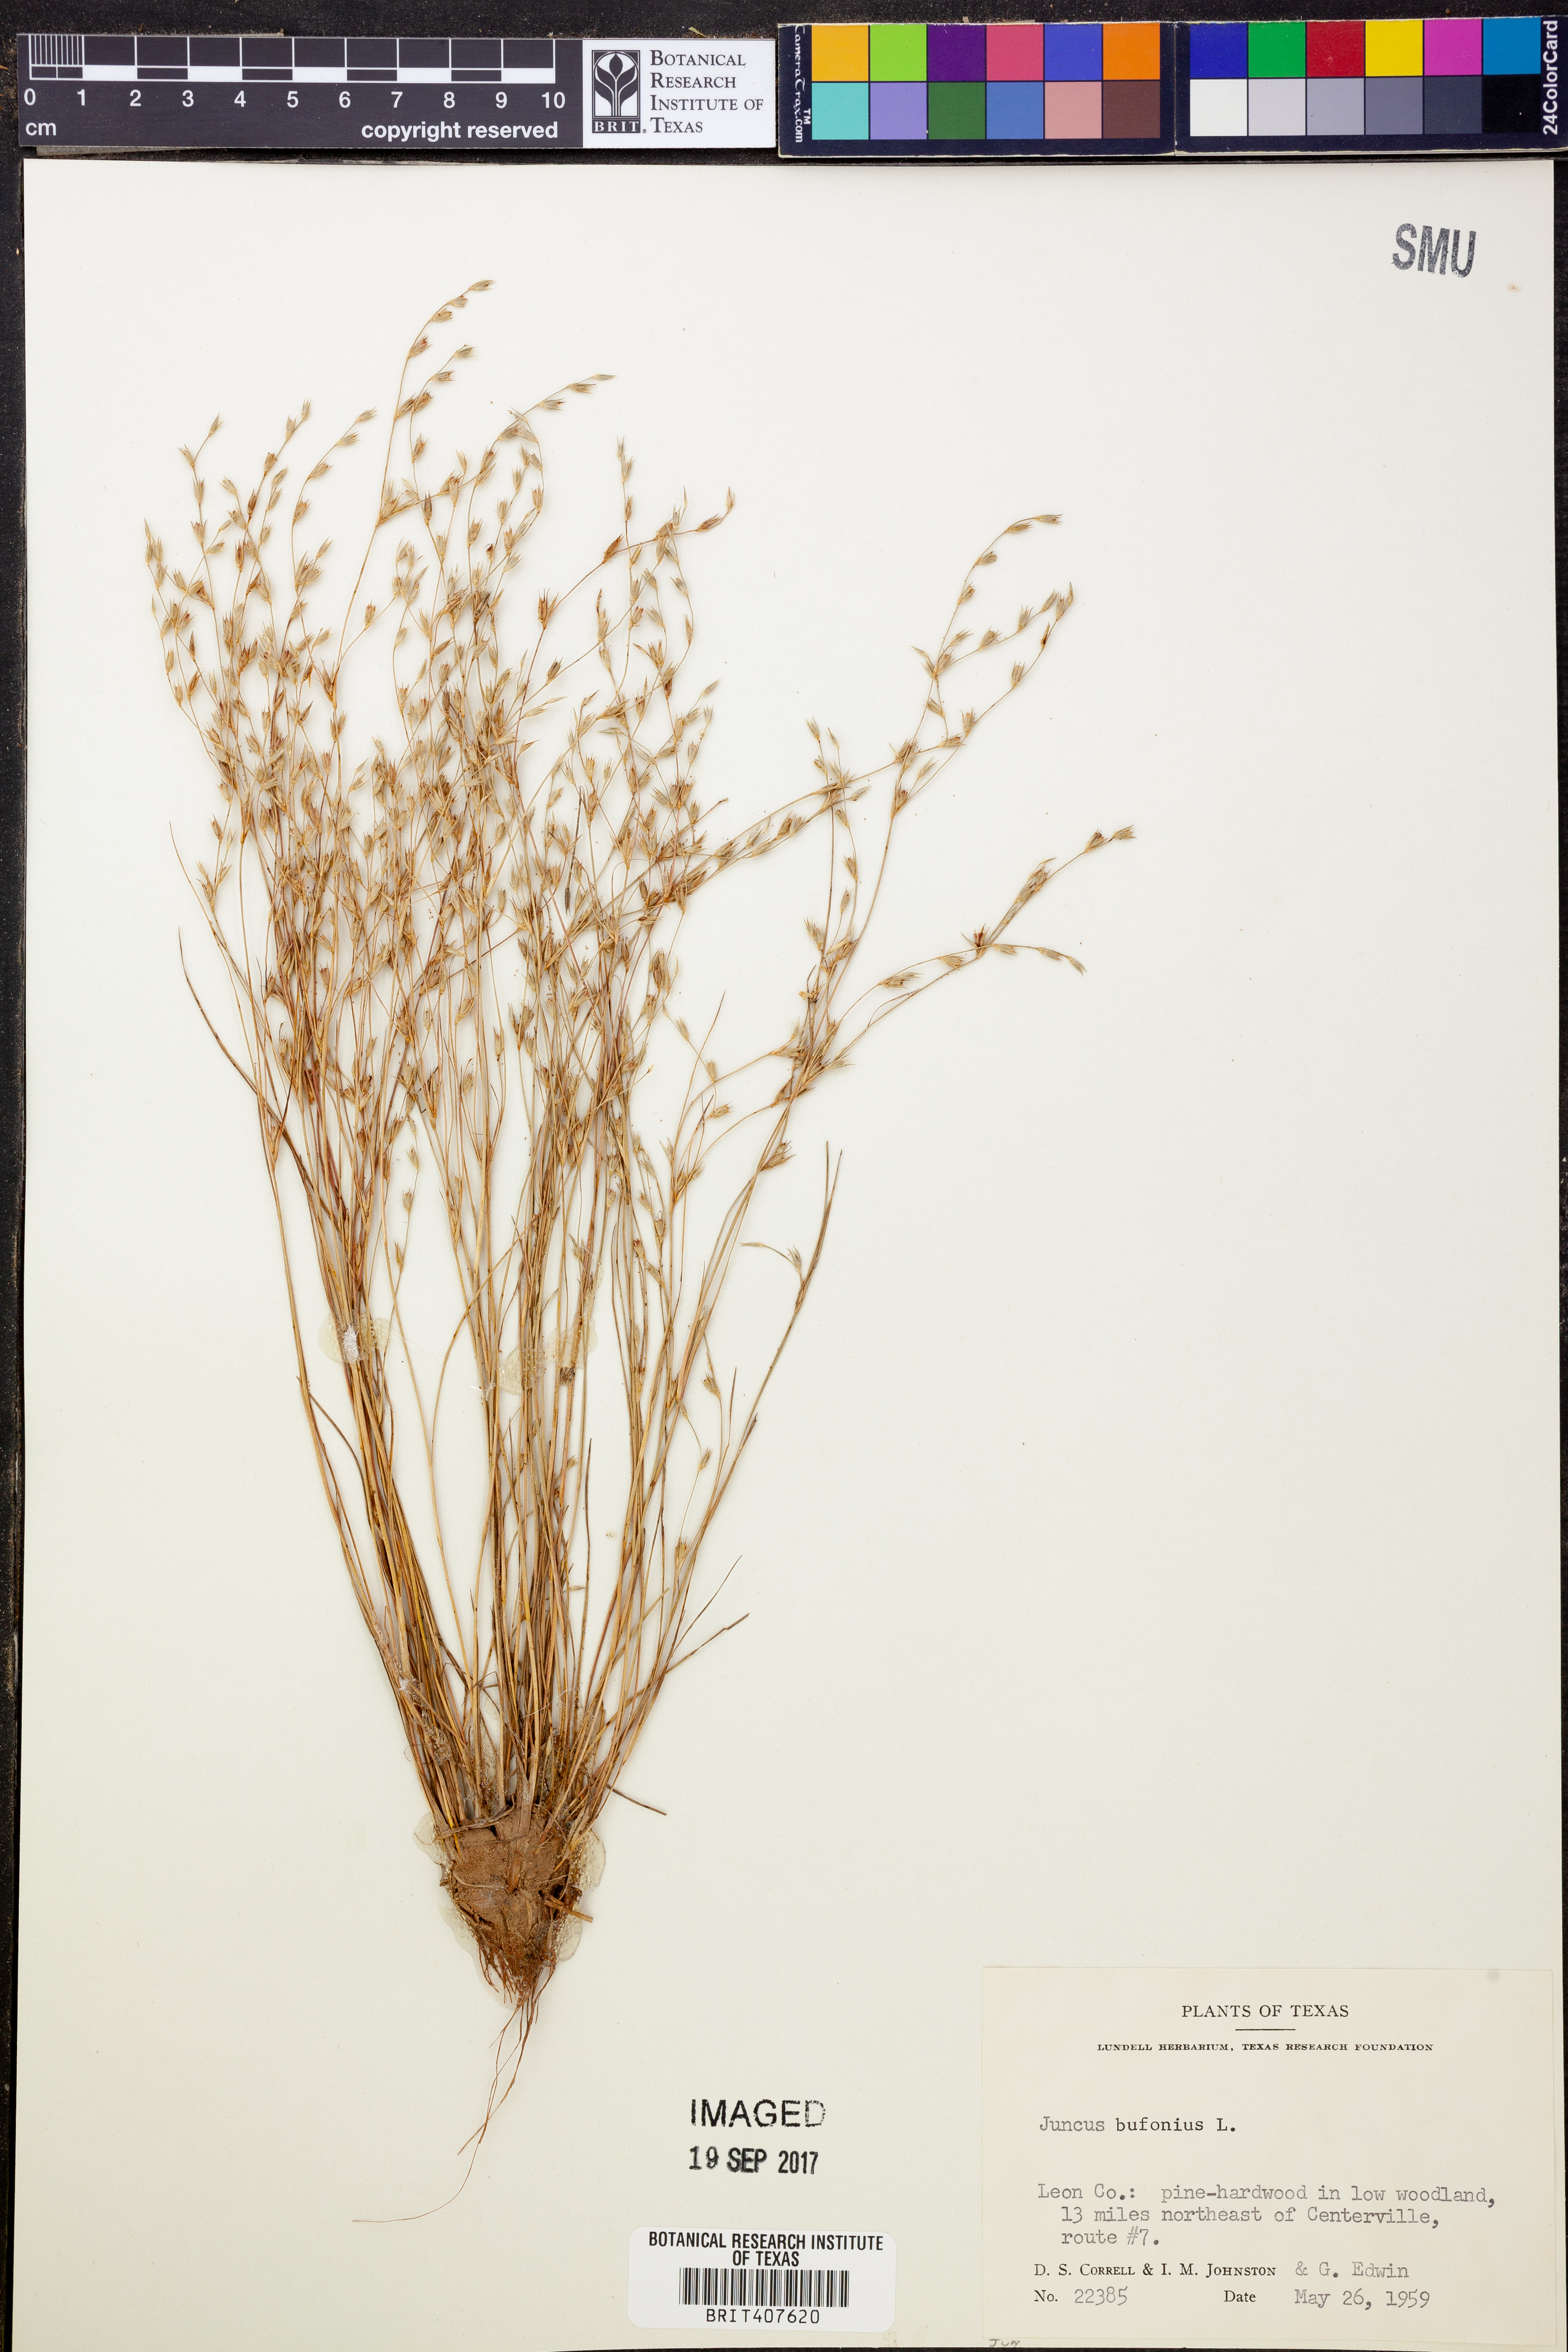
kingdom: Plantae
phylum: Tracheophyta
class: Liliopsida
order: Poales
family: Juncaceae
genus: Juncus
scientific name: Juncus bufonius
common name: Toad rush
